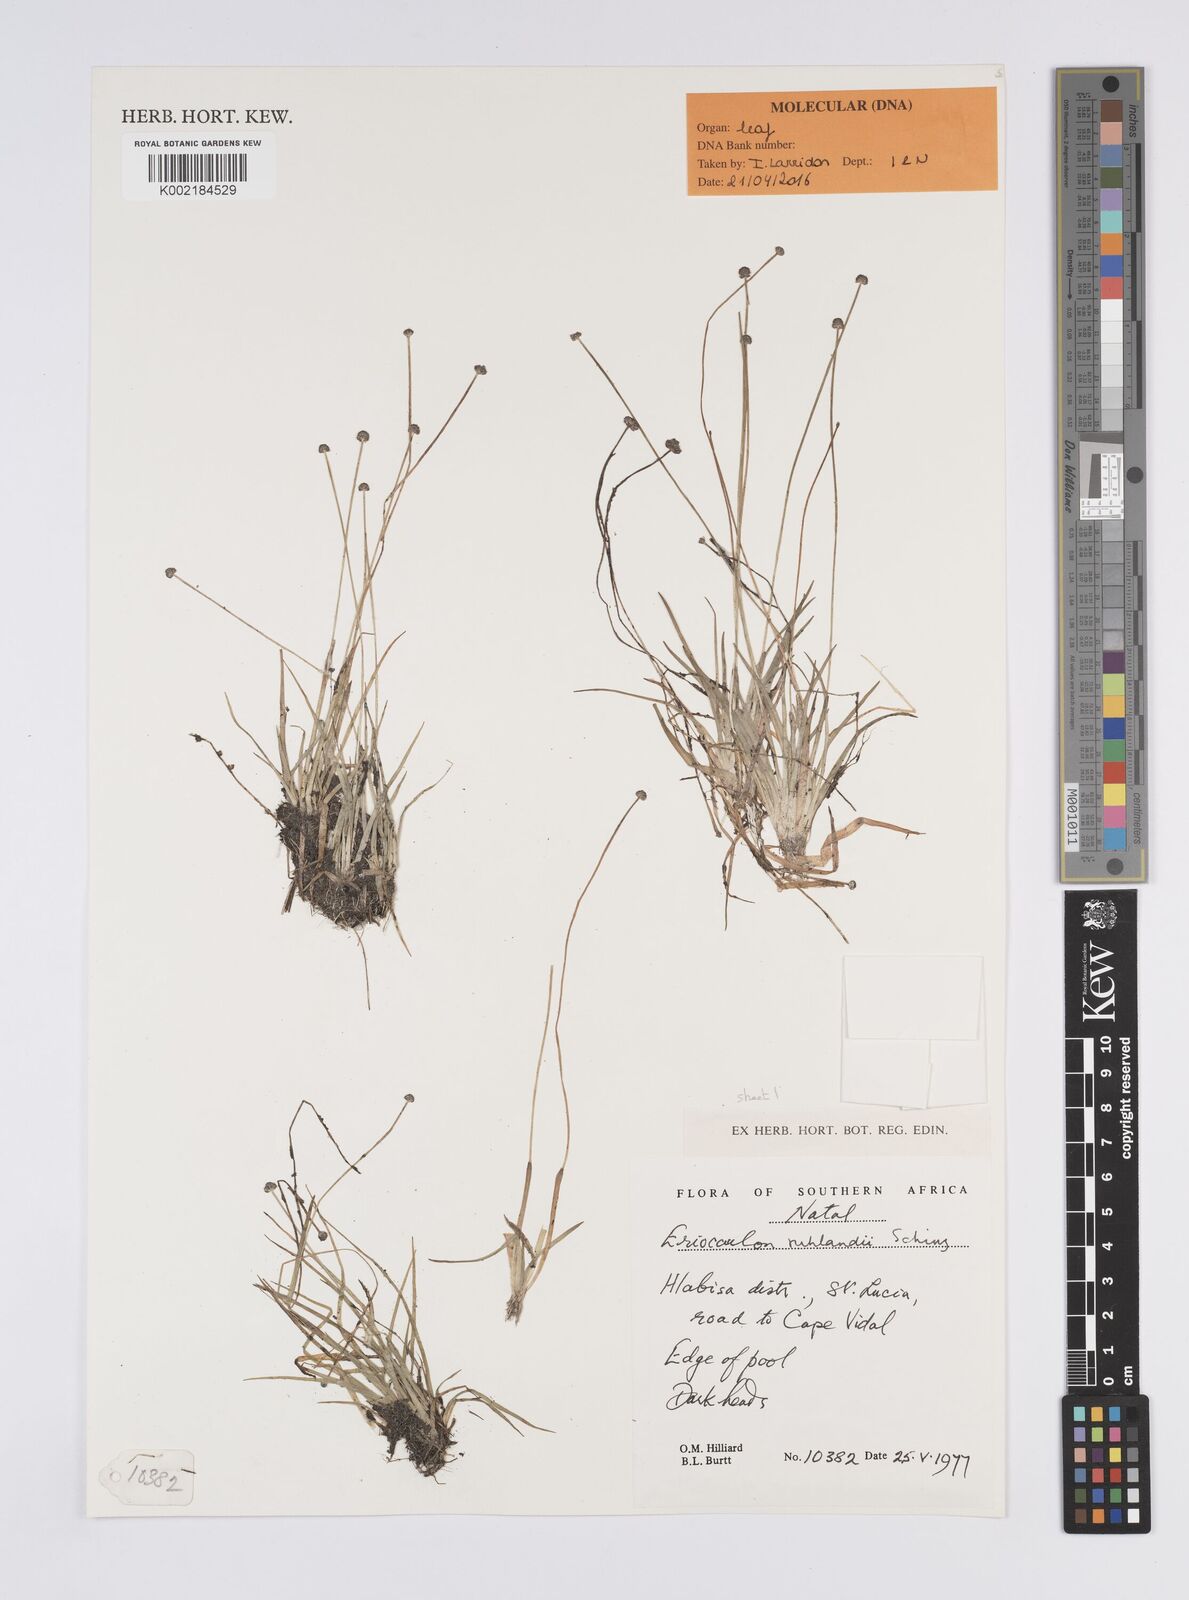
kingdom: Plantae
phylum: Tracheophyta
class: Liliopsida
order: Poales
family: Eriocaulaceae
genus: Eriocaulon
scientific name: Eriocaulon schlechteri
